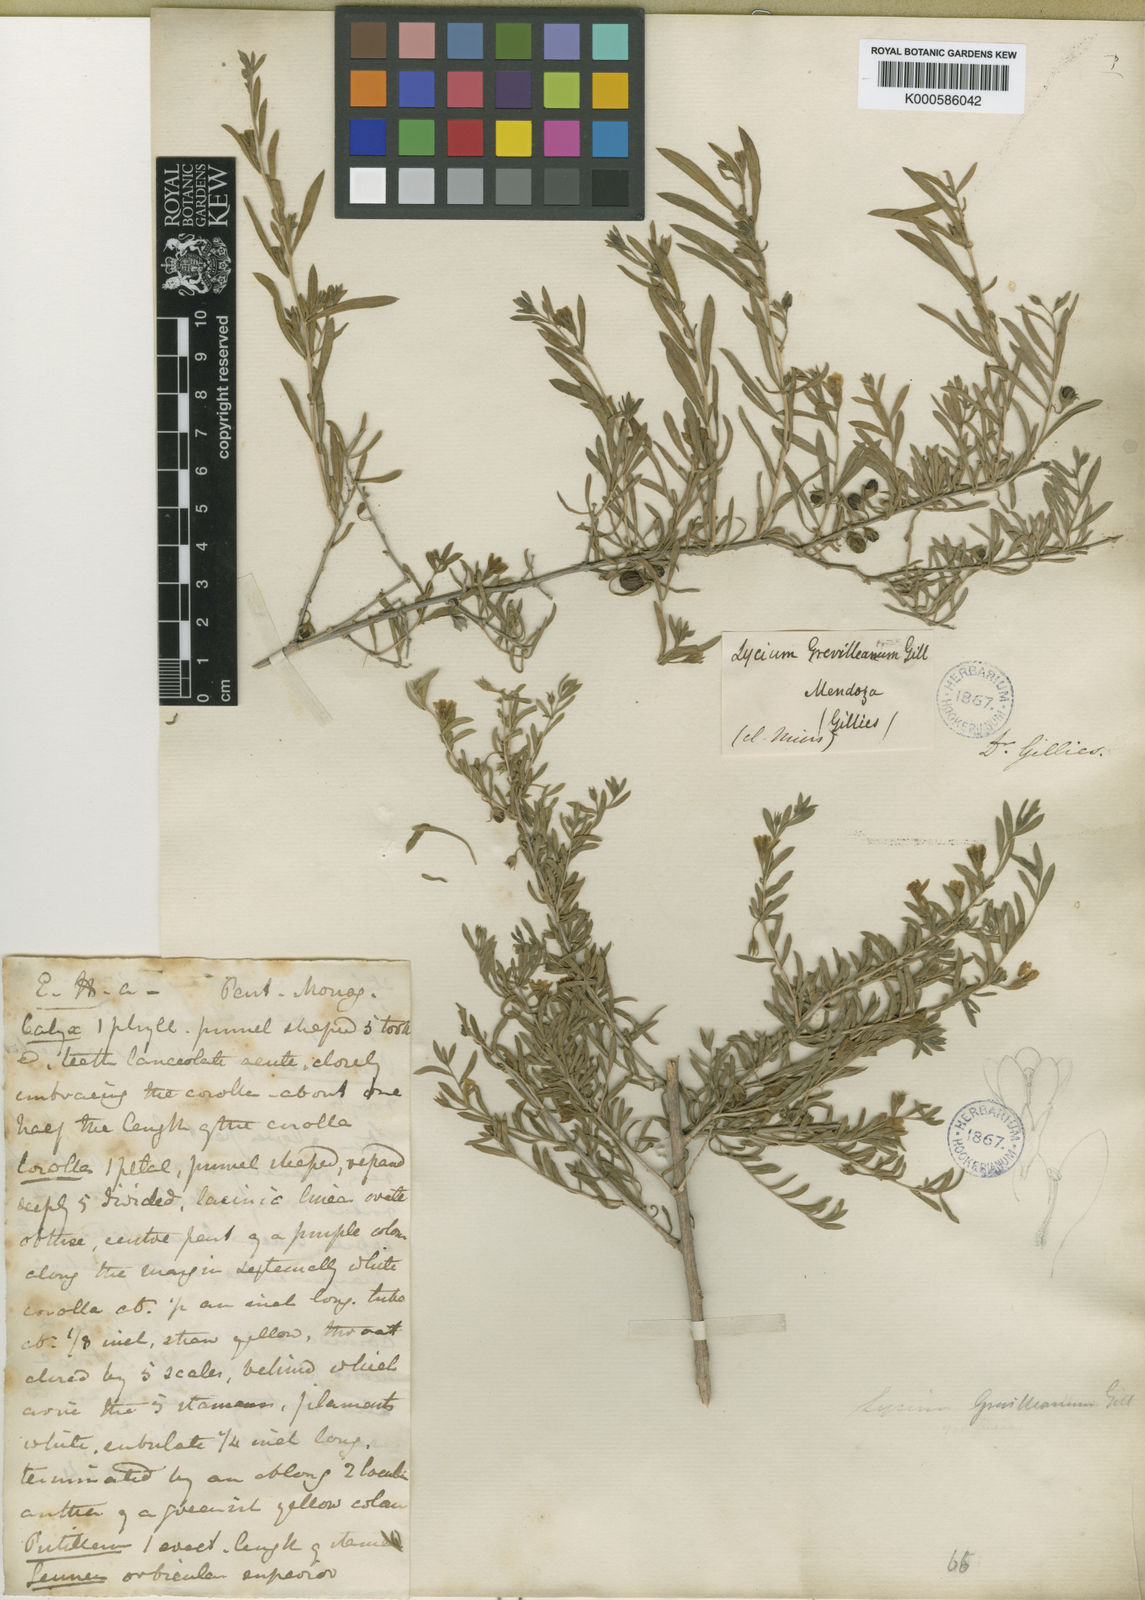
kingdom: Plantae
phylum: Tracheophyta
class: Magnoliopsida
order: Solanales
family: Solanaceae
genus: Lycium
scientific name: Lycium chilense
